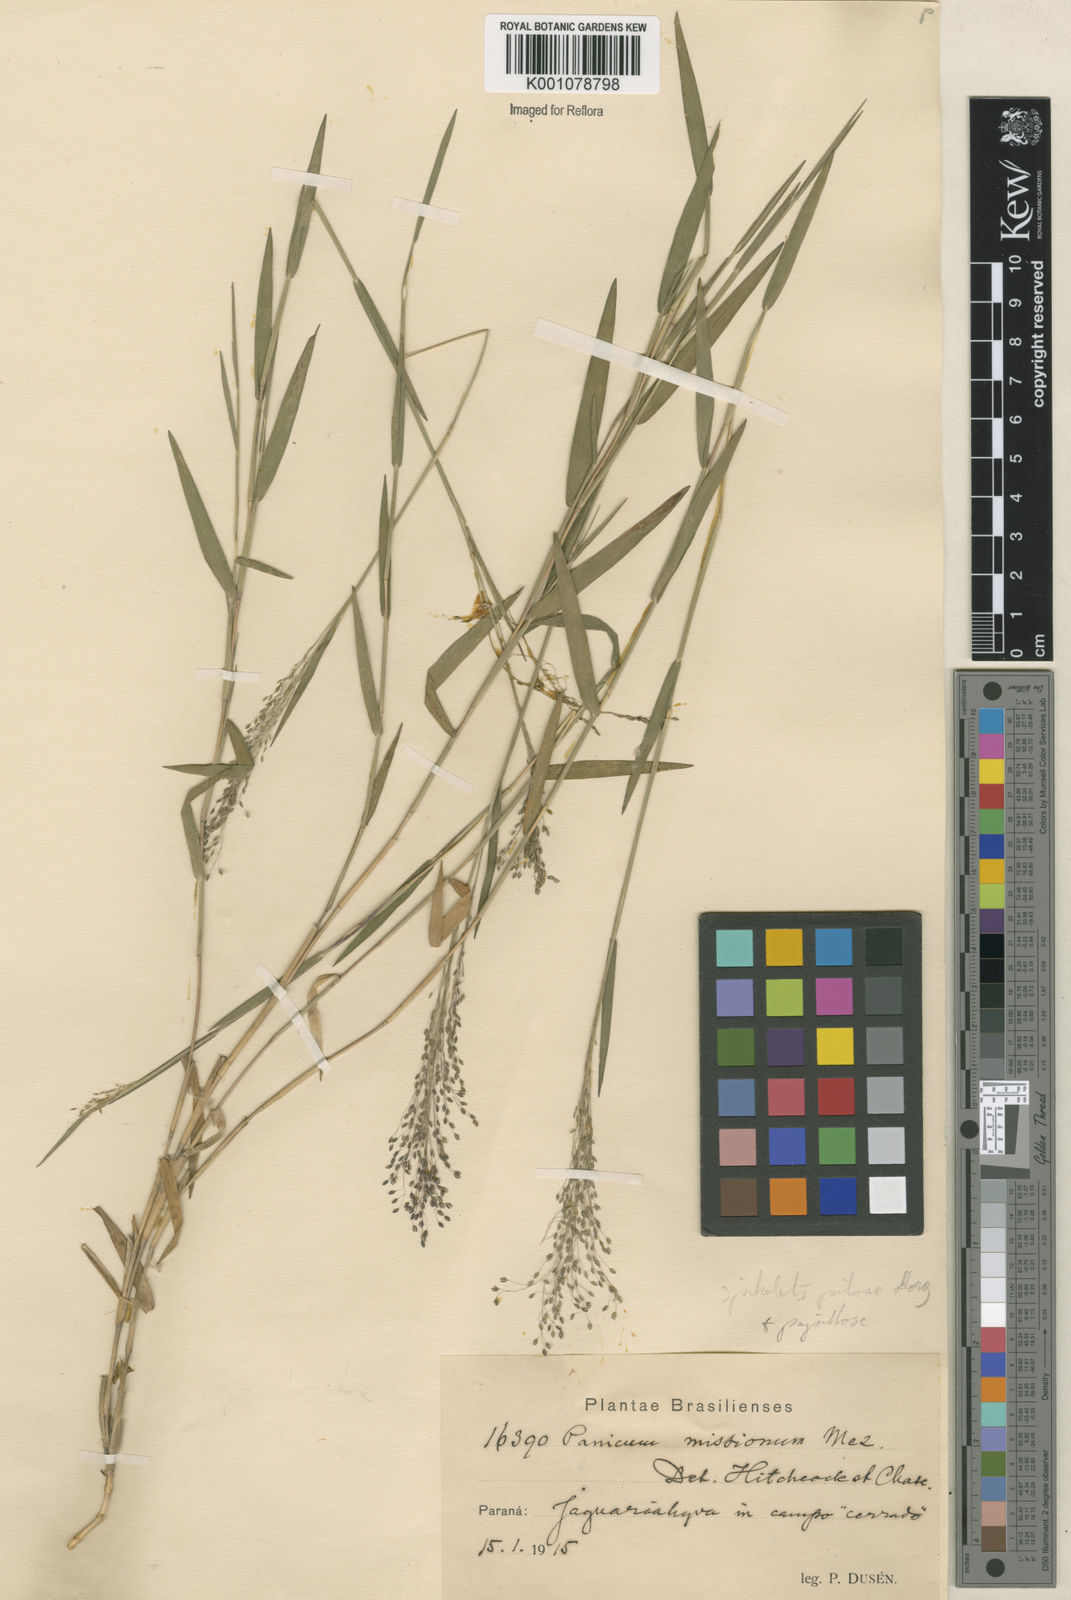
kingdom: Plantae
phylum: Tracheophyta
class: Liliopsida
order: Poales
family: Poaceae
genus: Trichanthecium
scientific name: Trichanthecium pseudisachne
